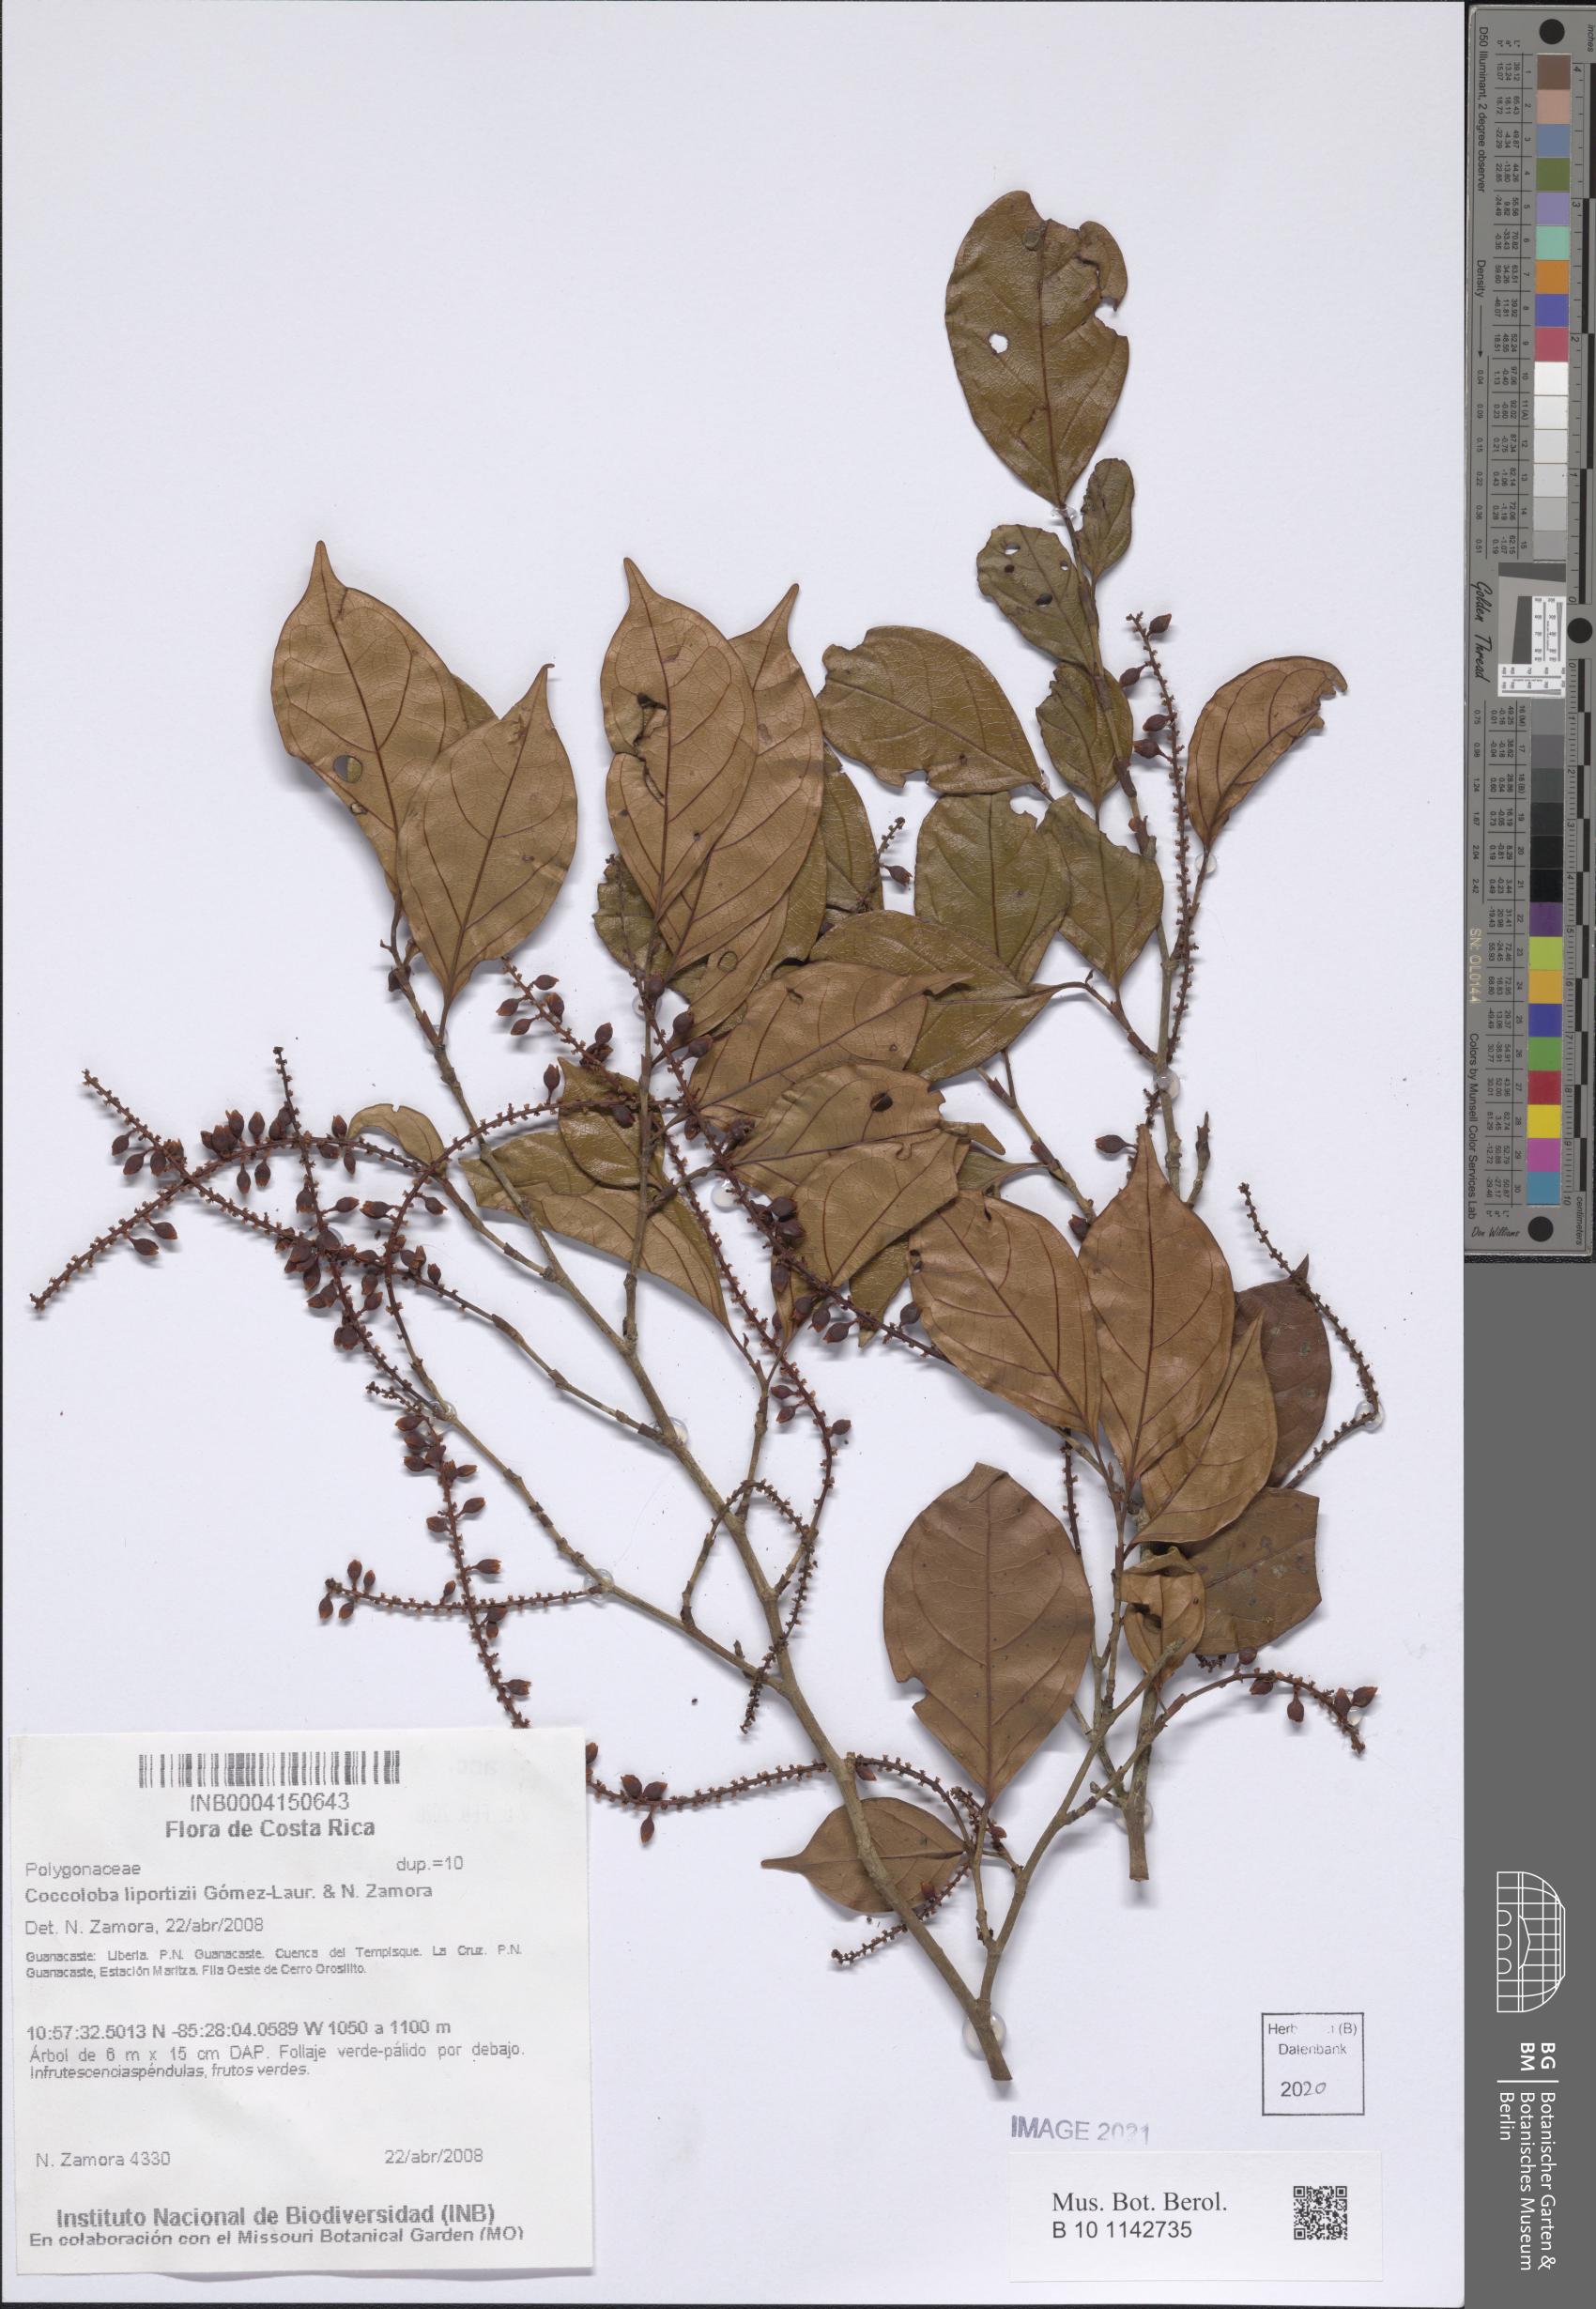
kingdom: Plantae
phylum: Tracheophyta
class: Magnoliopsida
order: Caryophyllales
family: Polygonaceae
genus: Coccoloba
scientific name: Coccoloba liportizii
